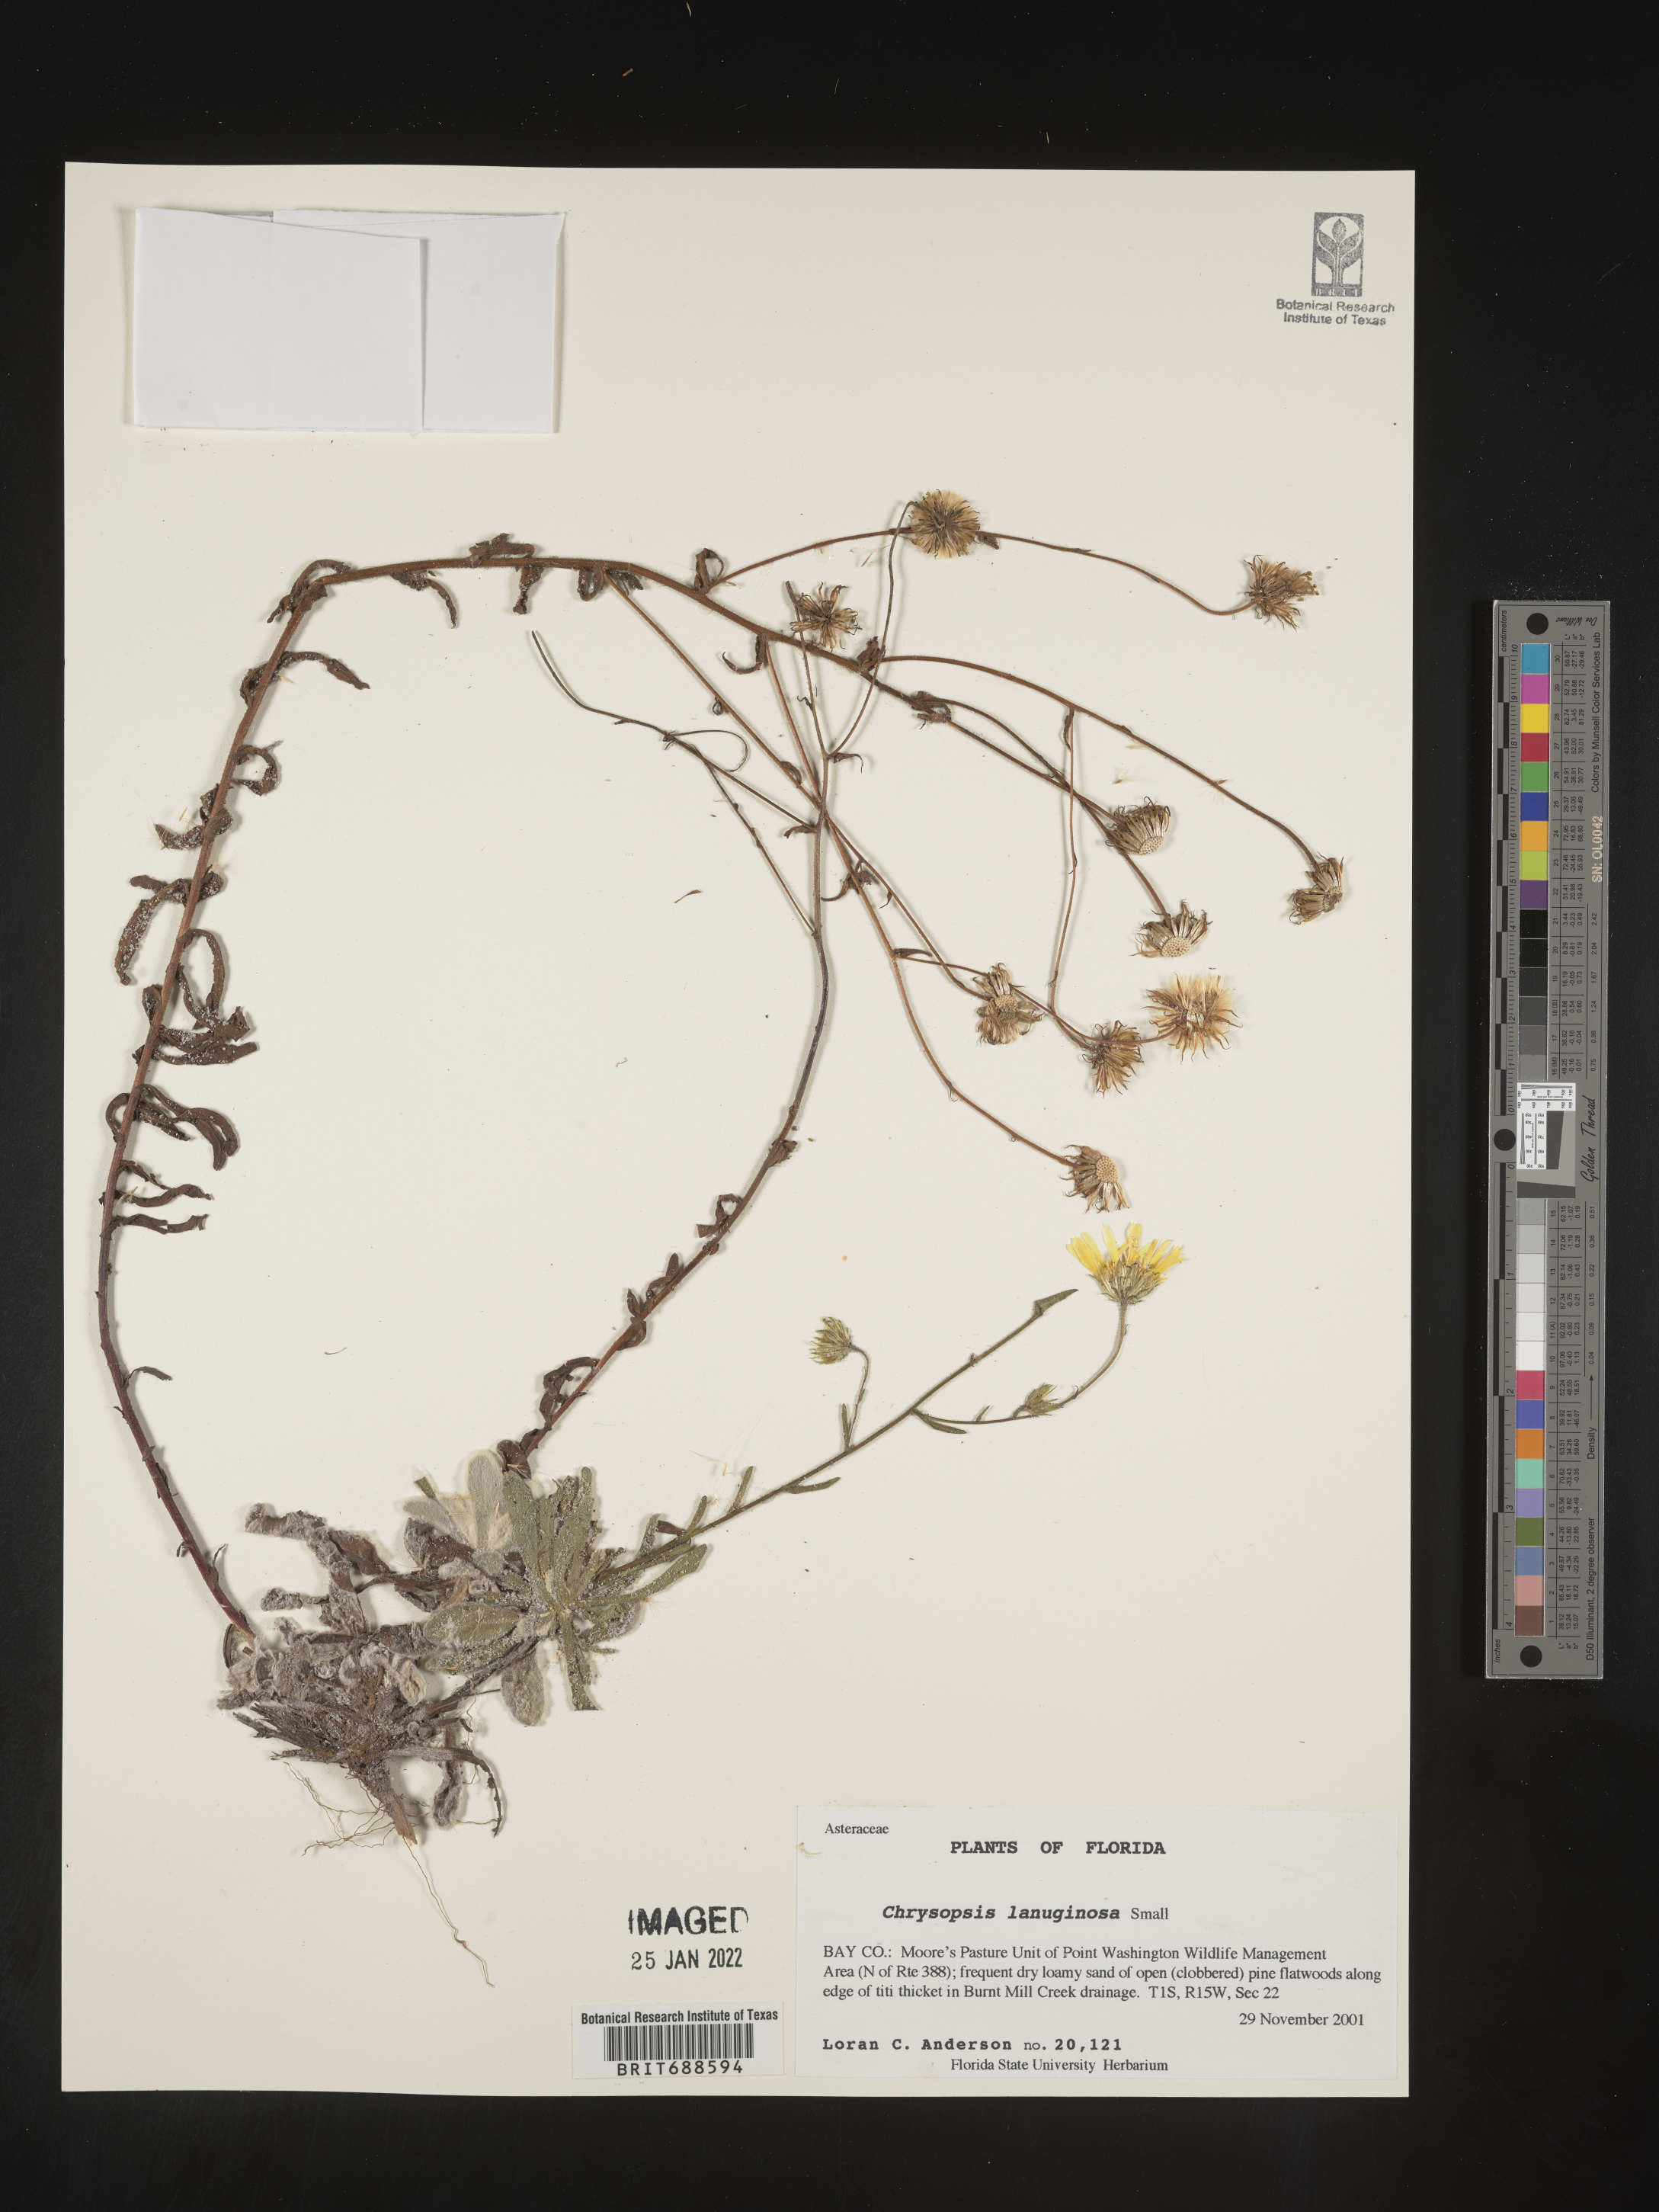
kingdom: Plantae
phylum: Tracheophyta
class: Magnoliopsida
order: Asterales
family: Asteraceae
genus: Chrysopsis
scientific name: Chrysopsis lanuginosa
